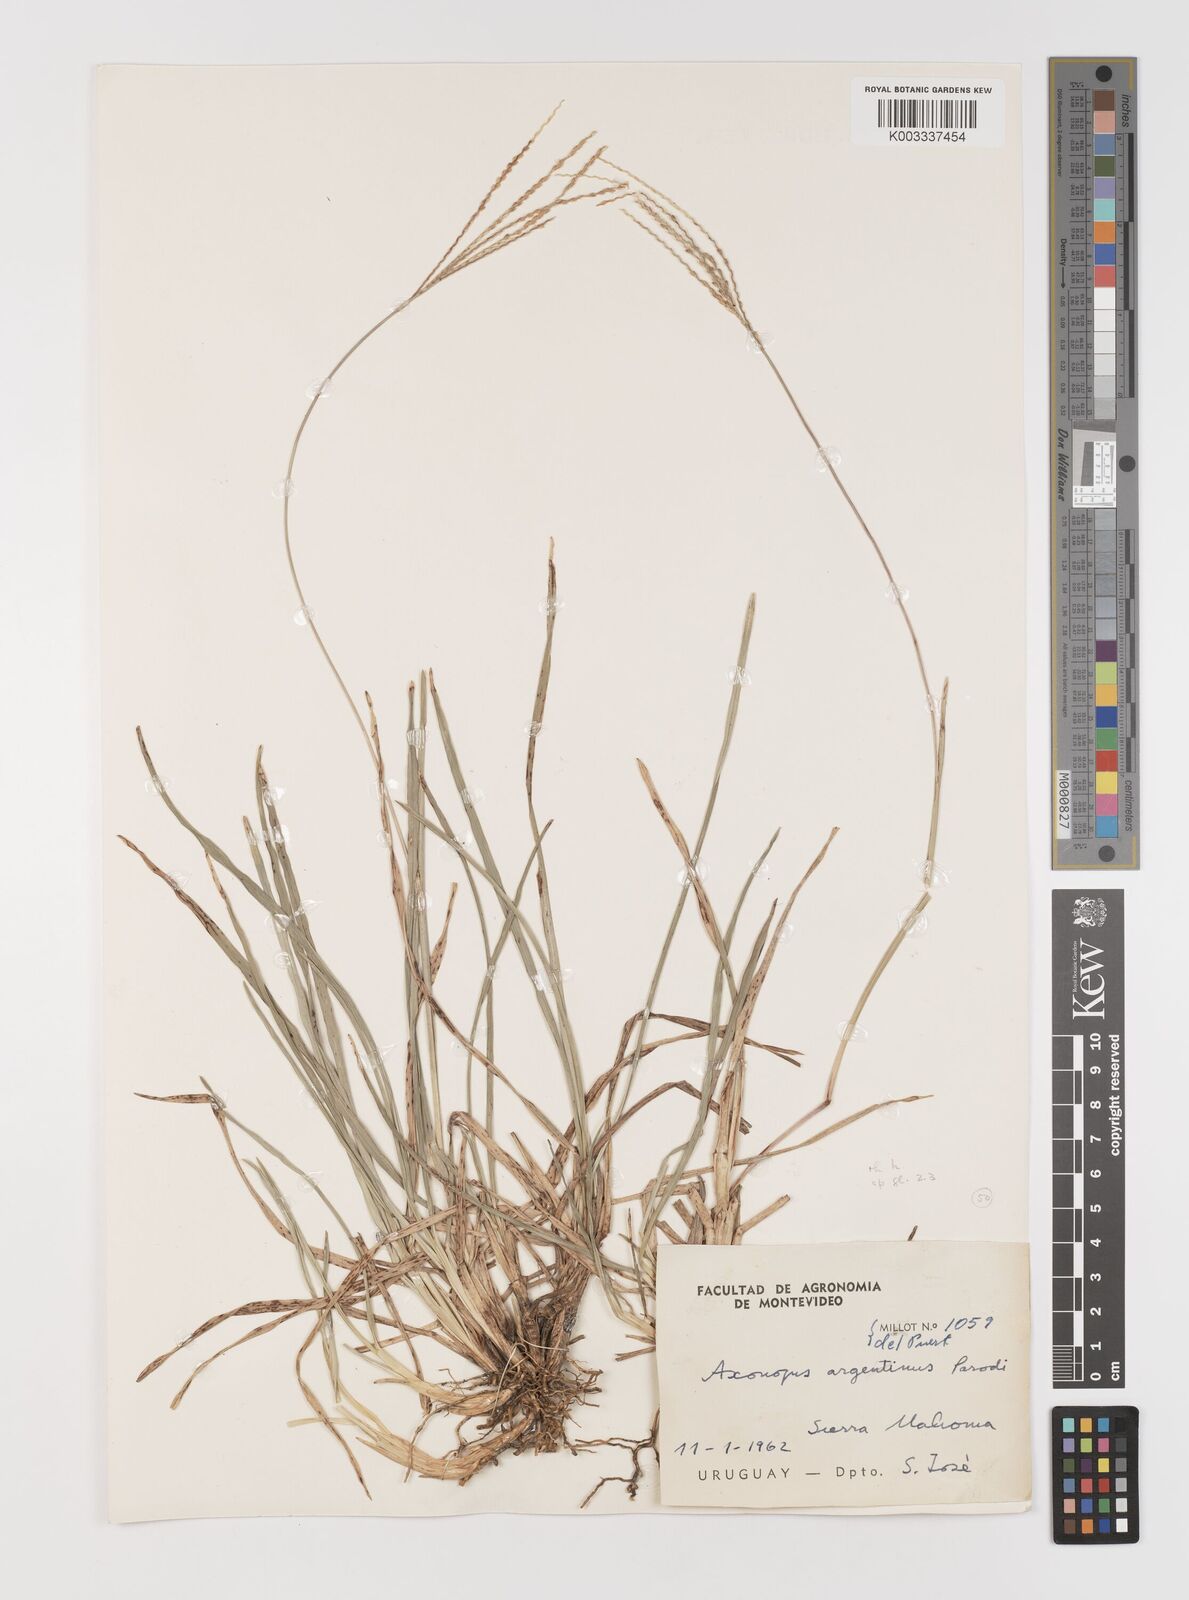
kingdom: Plantae
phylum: Tracheophyta
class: Liliopsida
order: Poales
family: Poaceae
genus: Axonopus
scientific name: Axonopus argentinus
